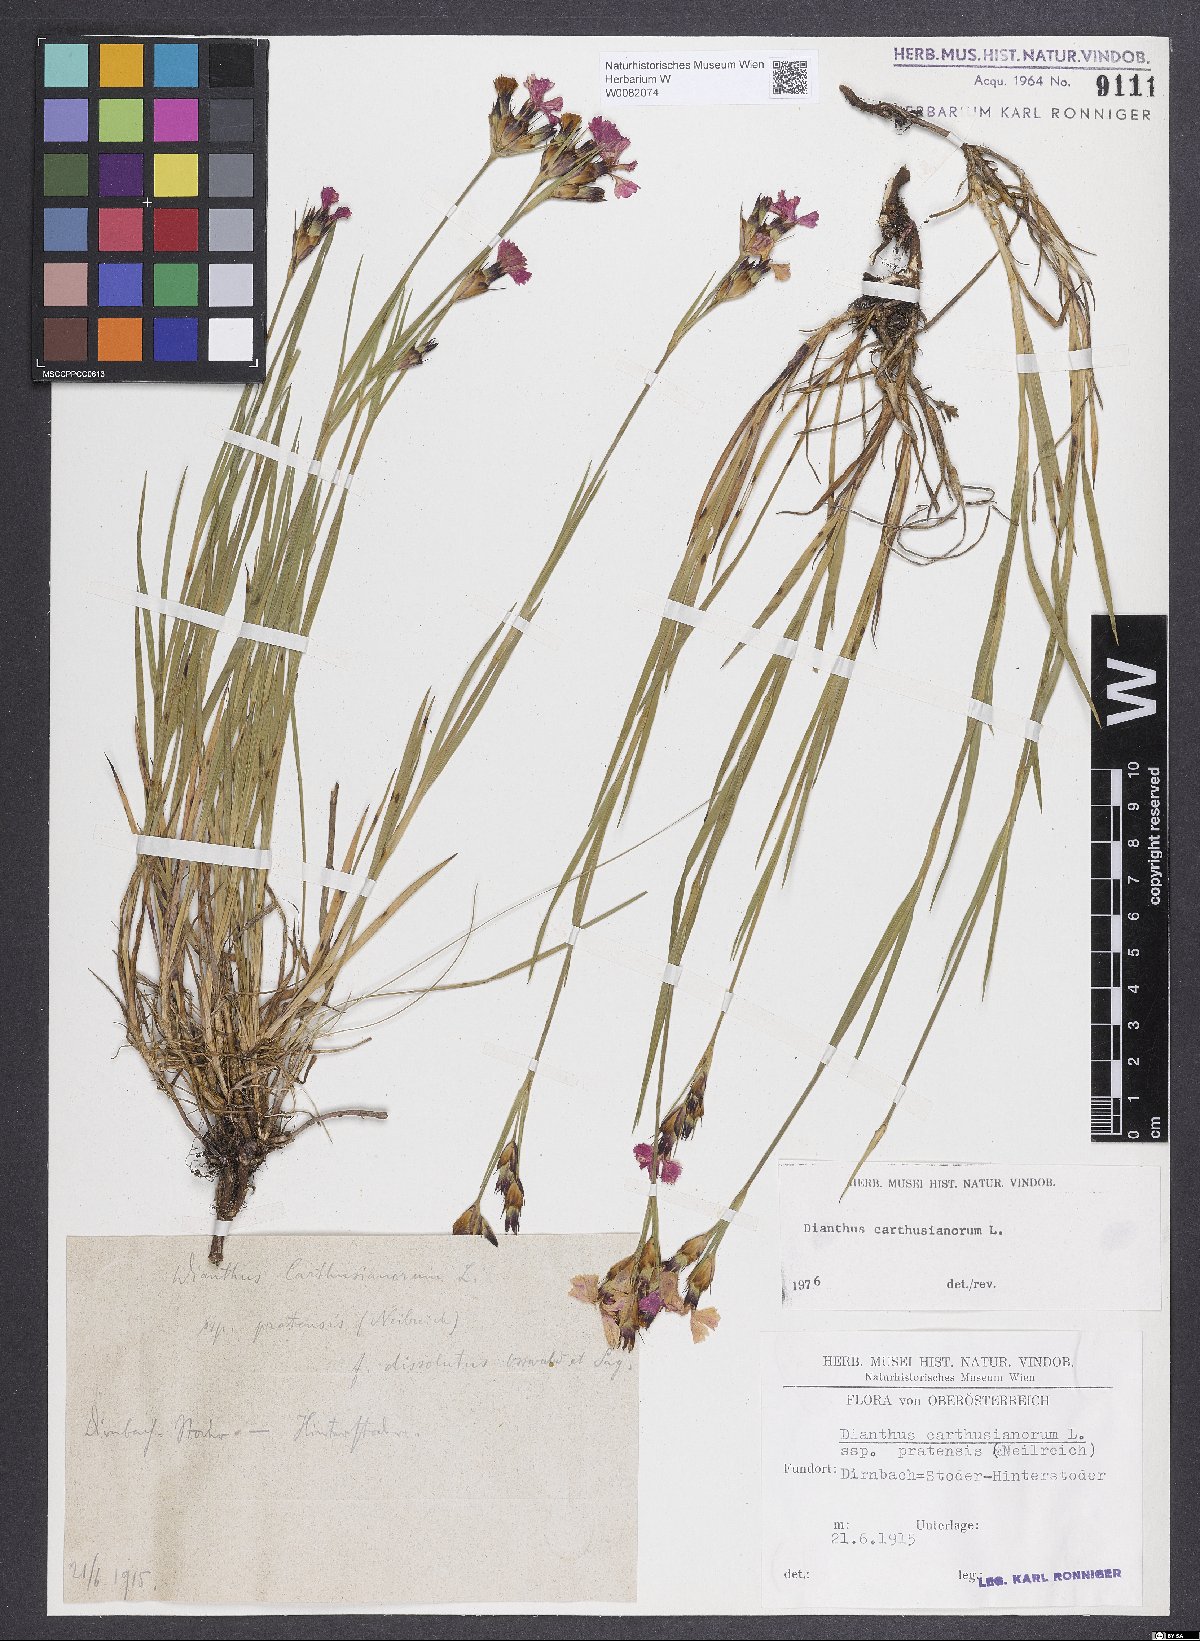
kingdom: Plantae
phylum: Tracheophyta
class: Magnoliopsida
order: Caryophyllales
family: Caryophyllaceae
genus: Dianthus
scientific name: Dianthus carthusianorum
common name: Carthusian pink
